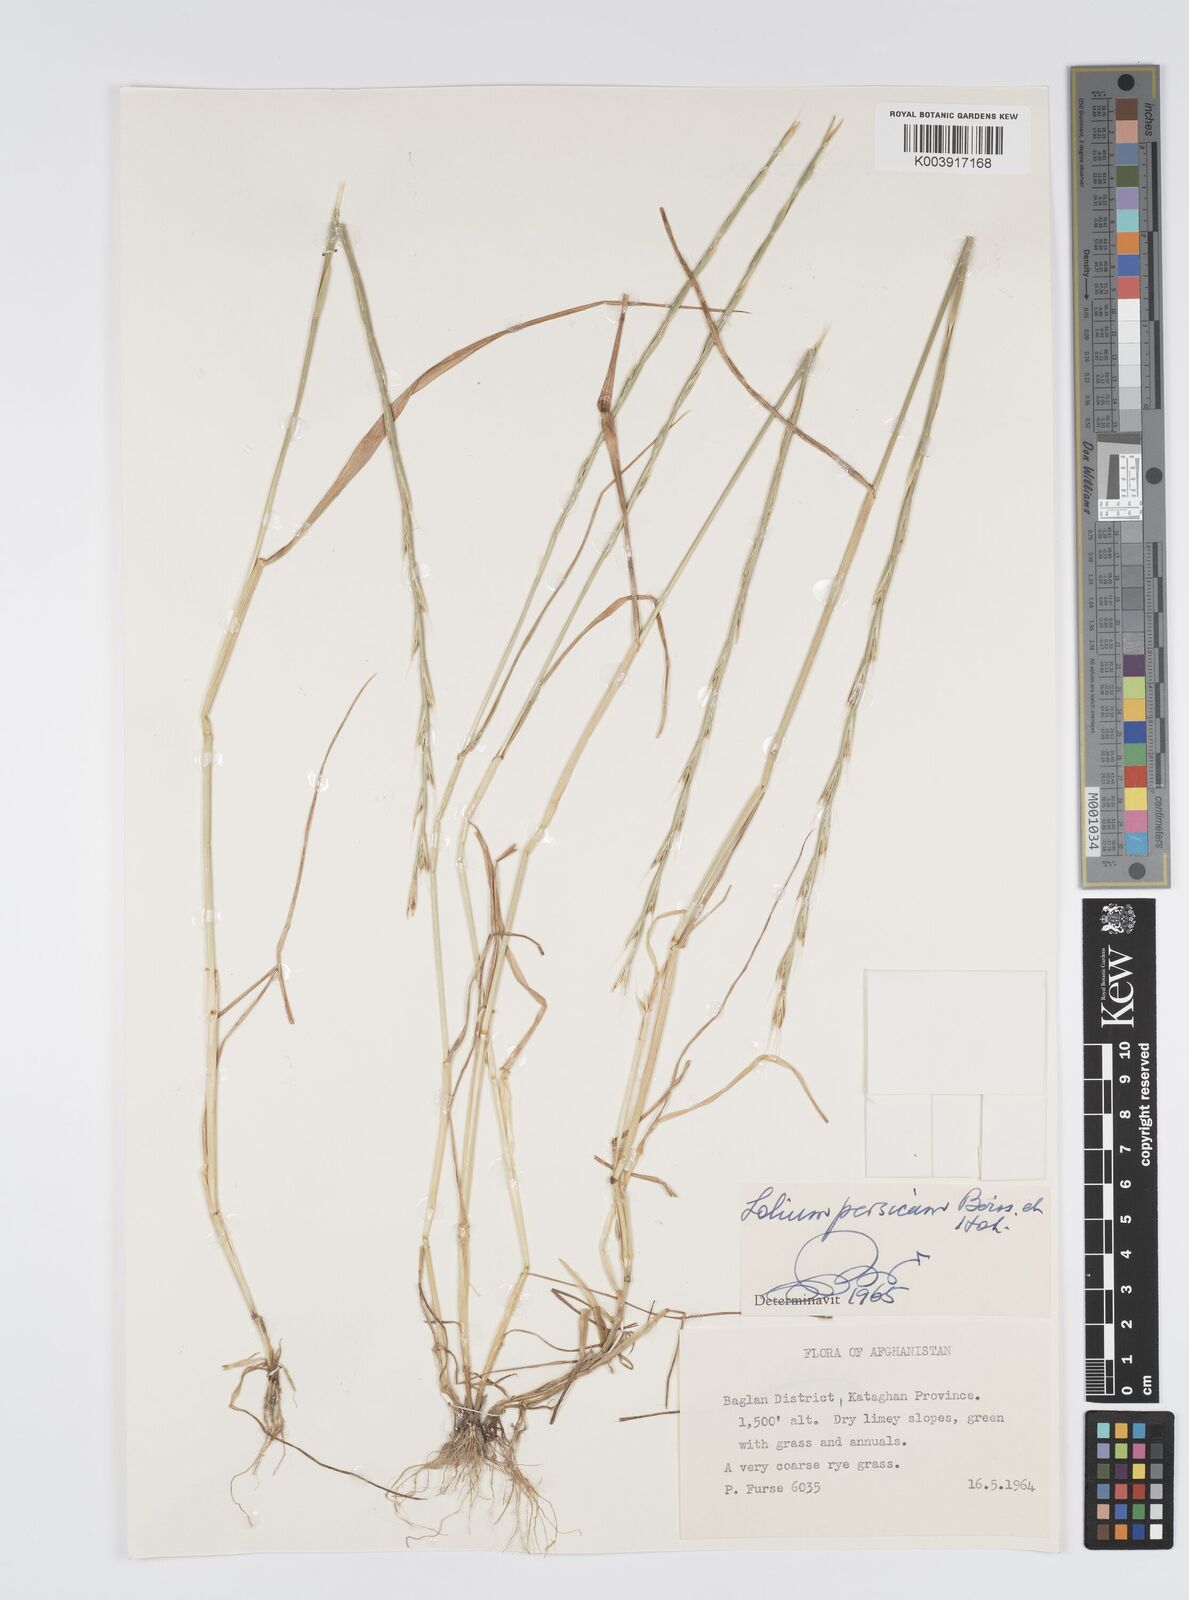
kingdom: Plantae
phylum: Tracheophyta
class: Liliopsida
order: Poales
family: Poaceae
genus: Lolium
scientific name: Lolium persicum
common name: Persian ryegrass
